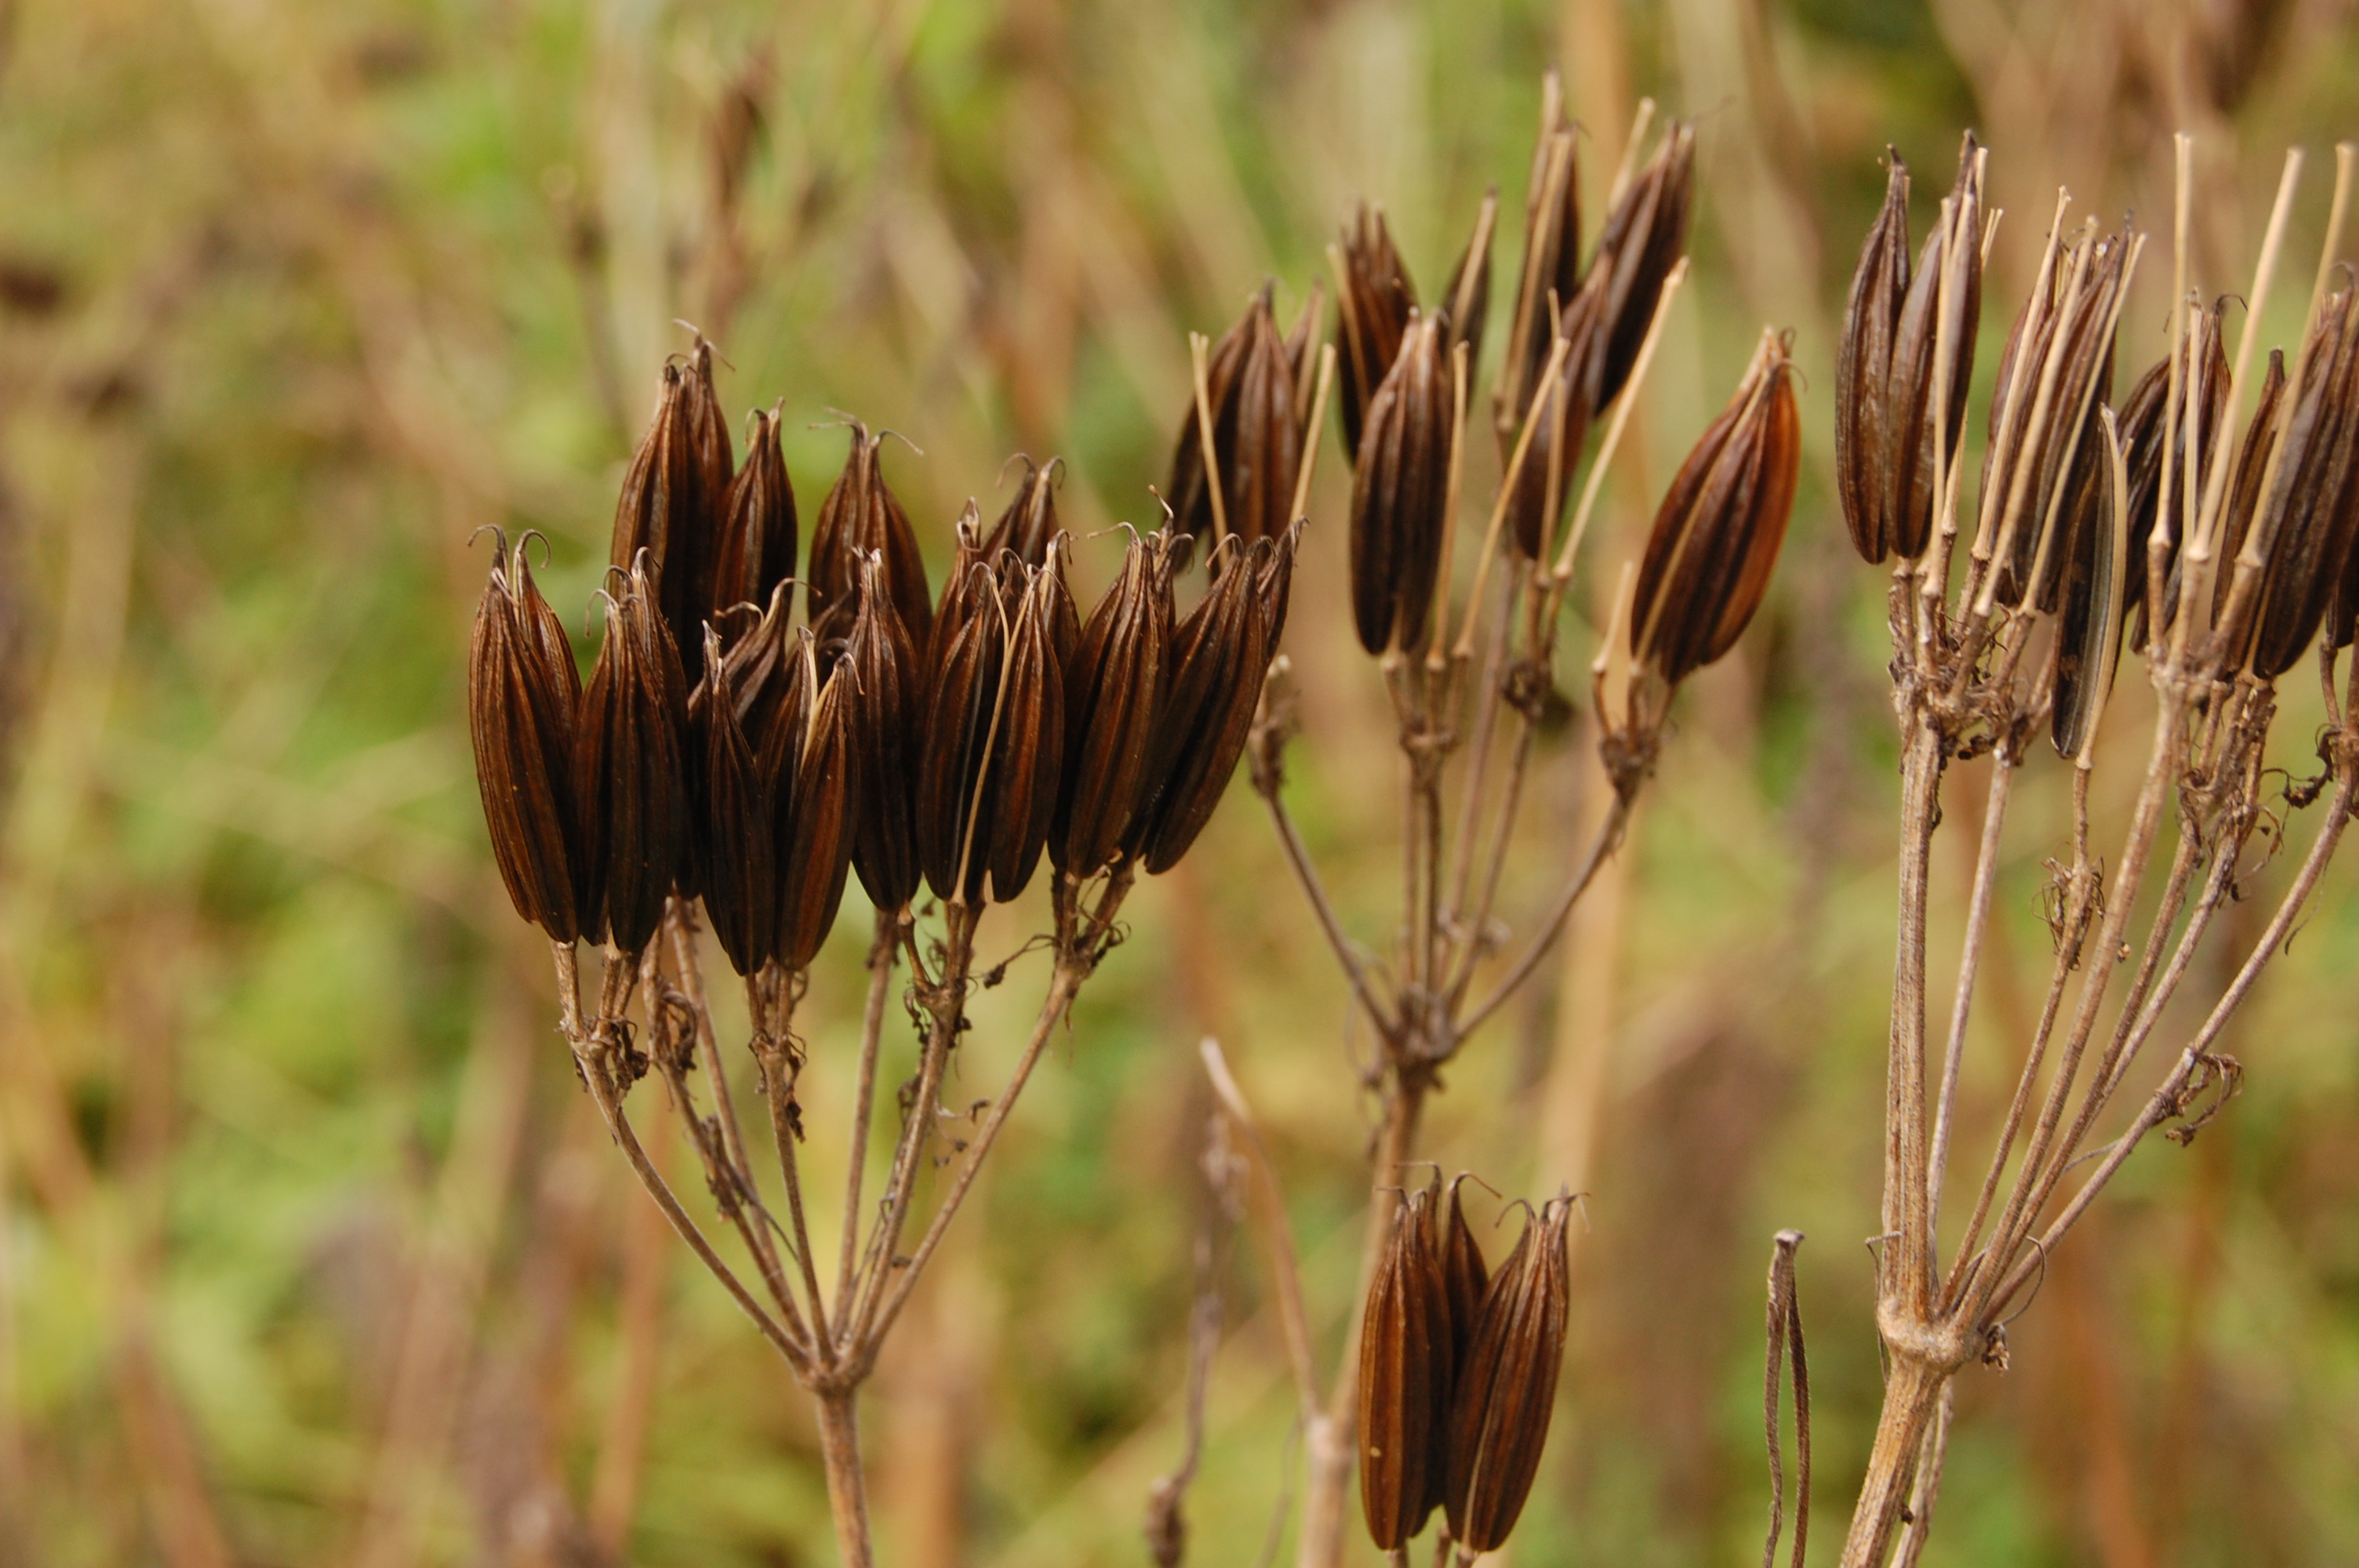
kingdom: Plantae
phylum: Tracheophyta
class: Magnoliopsida
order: Apiales
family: Apiaceae
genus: Myrrhis
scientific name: Myrrhis odorata
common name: Sweet cicely
